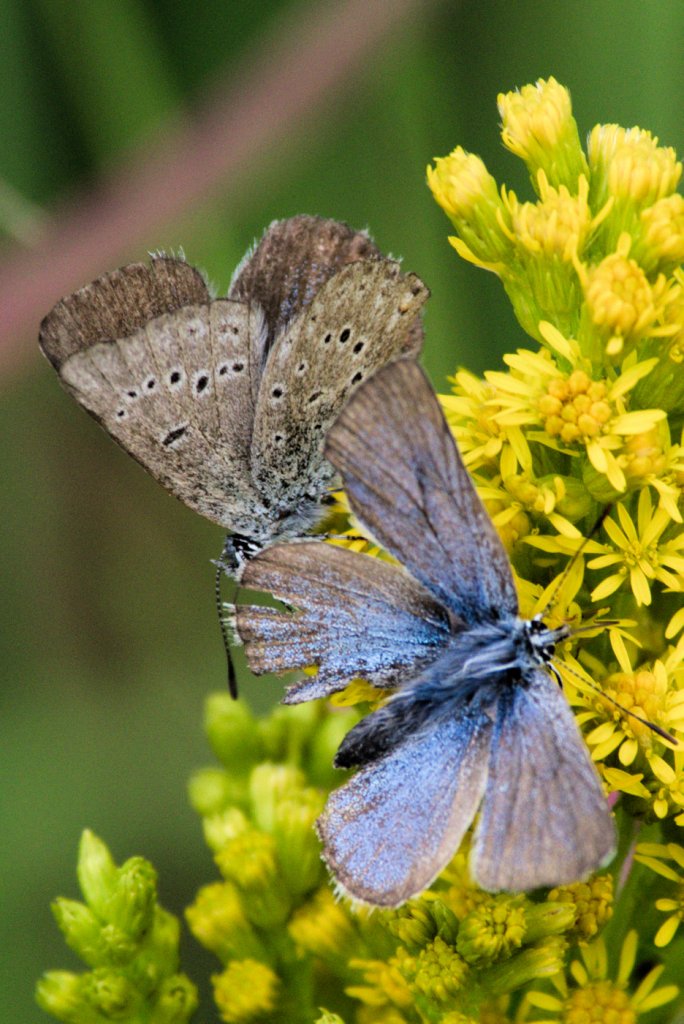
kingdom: Animalia
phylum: Arthropoda
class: Insecta
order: Lepidoptera
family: Lycaenidae
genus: Glaucopsyche
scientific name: Glaucopsyche lygdamus
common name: Silvery Blue
